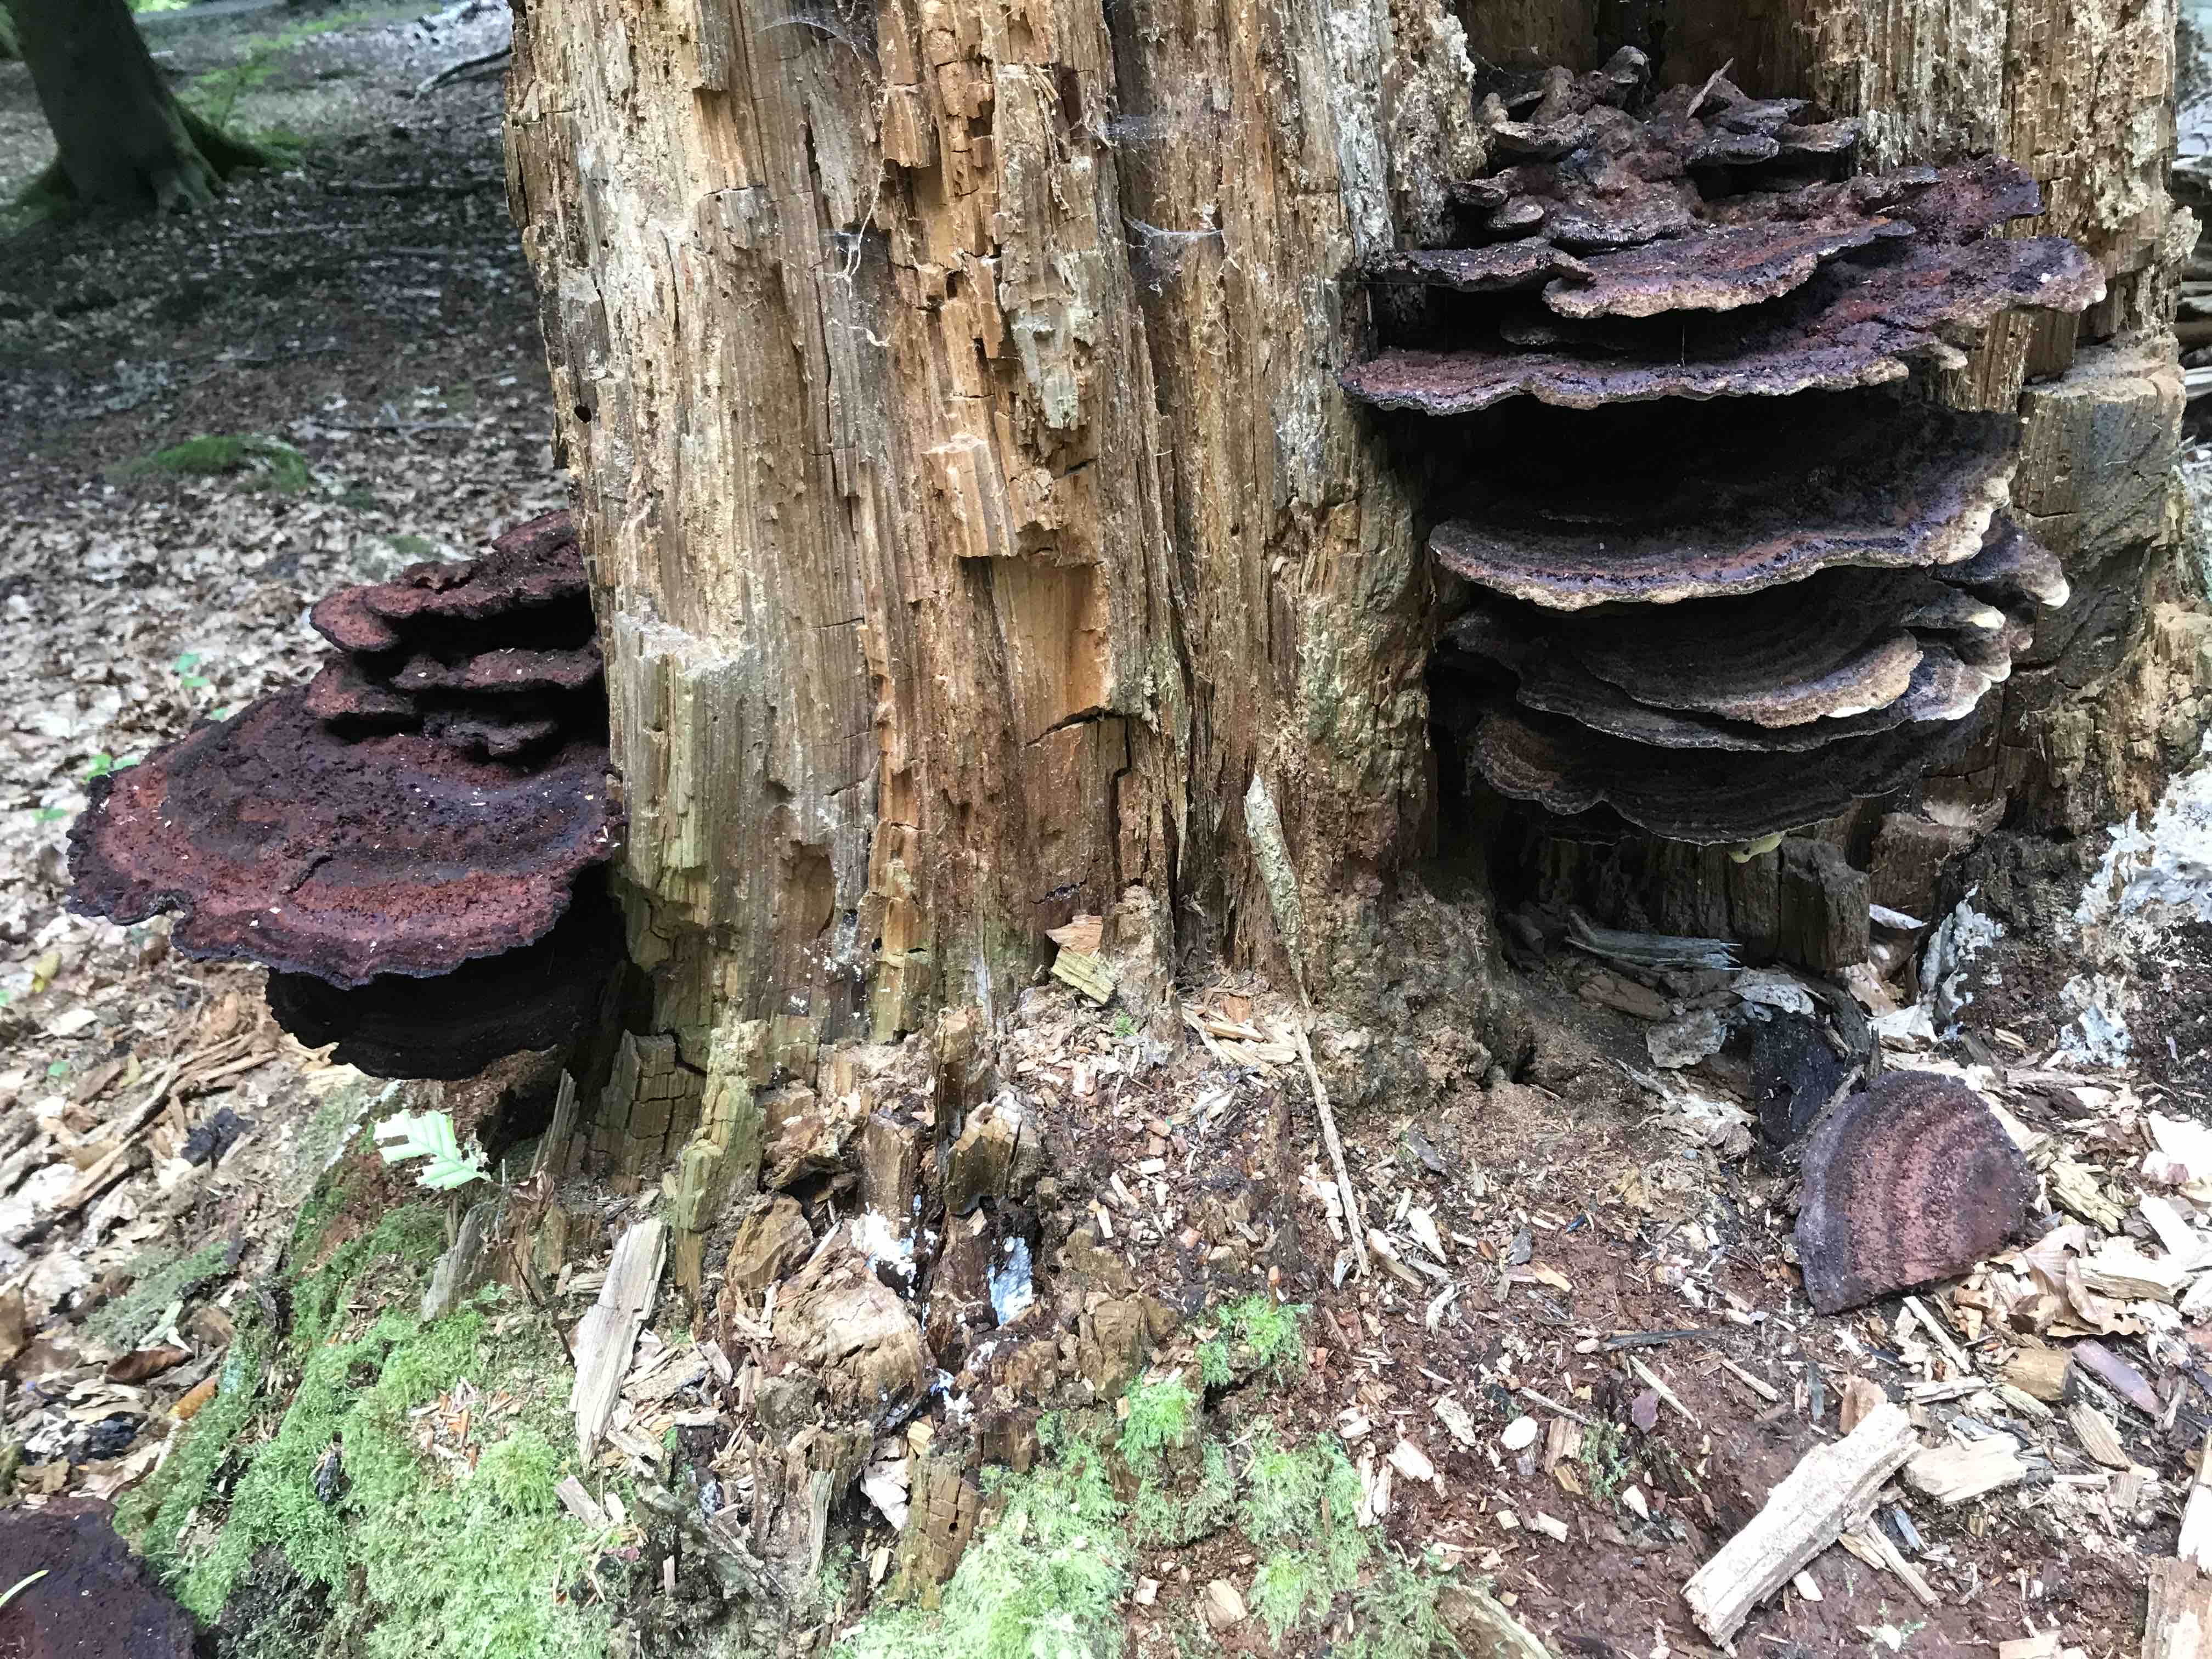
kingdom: Fungi
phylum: Basidiomycota
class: Agaricomycetes
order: Polyporales
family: Laetiporaceae
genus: Phaeolus
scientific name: Phaeolus schweinitzii
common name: brunporesvamp
